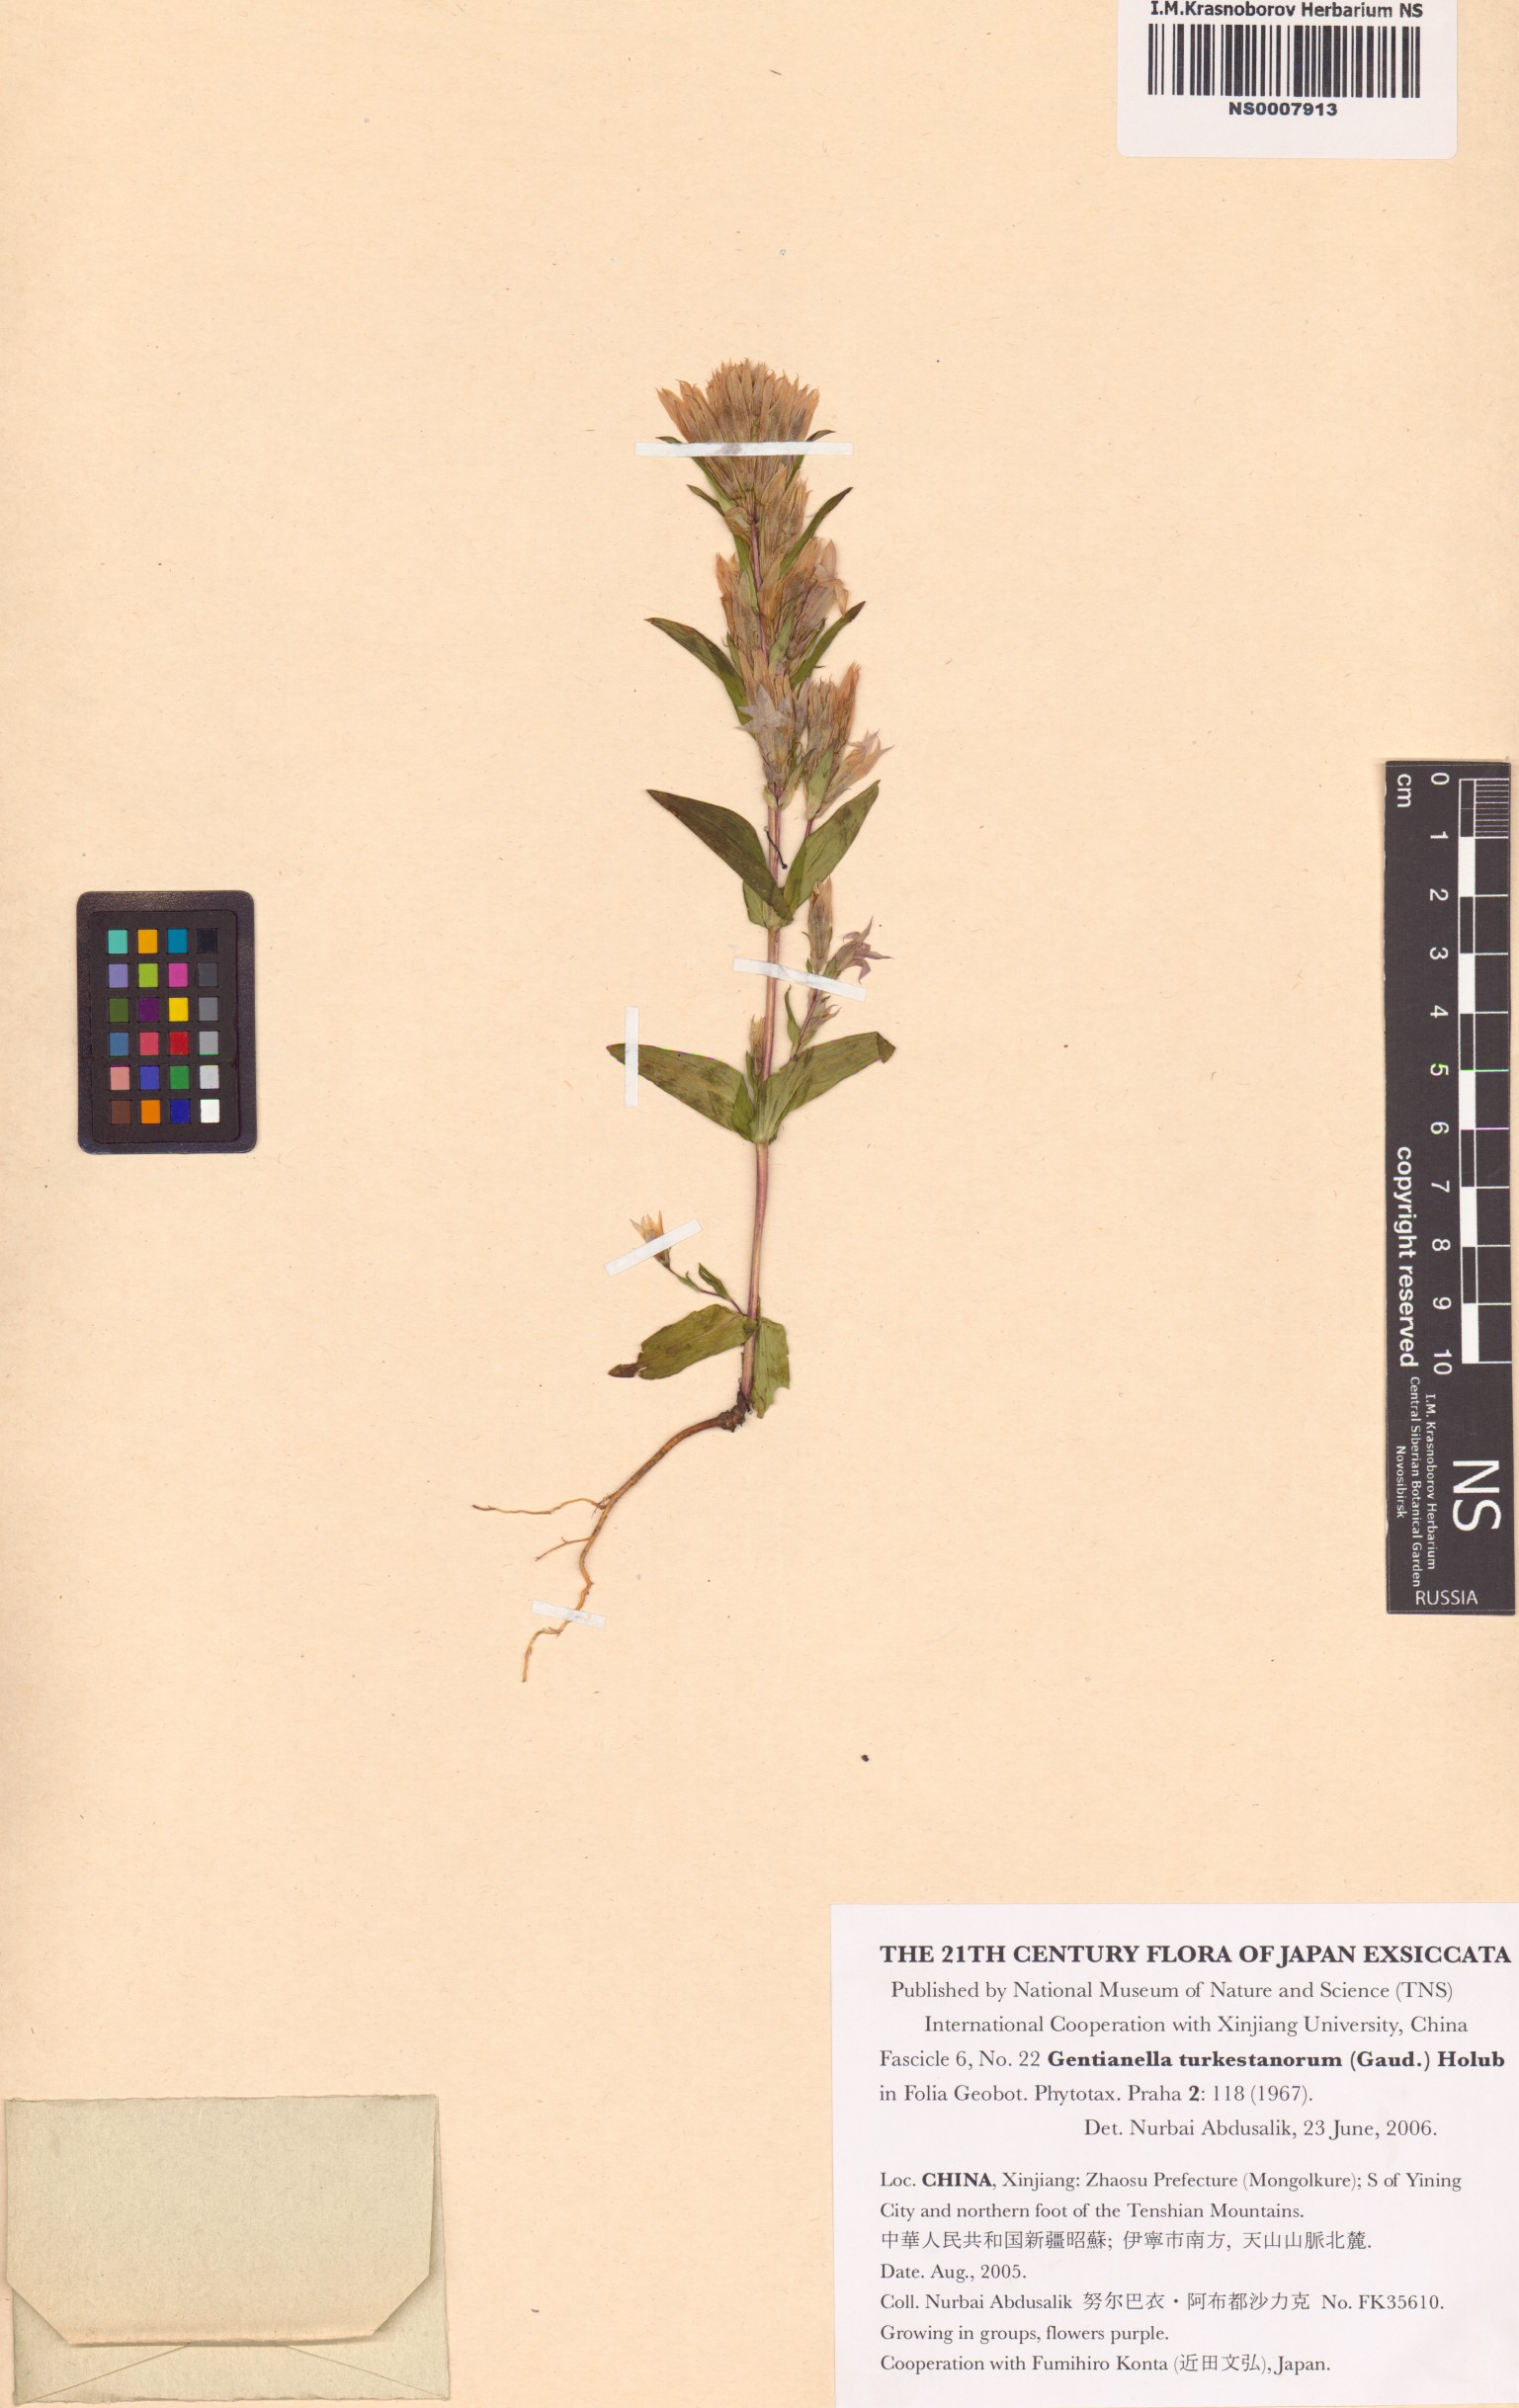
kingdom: Plantae
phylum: Tracheophyta
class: Magnoliopsida
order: Gentianales
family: Gentianaceae
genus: Gentianella
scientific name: Gentianella turkestanorum
